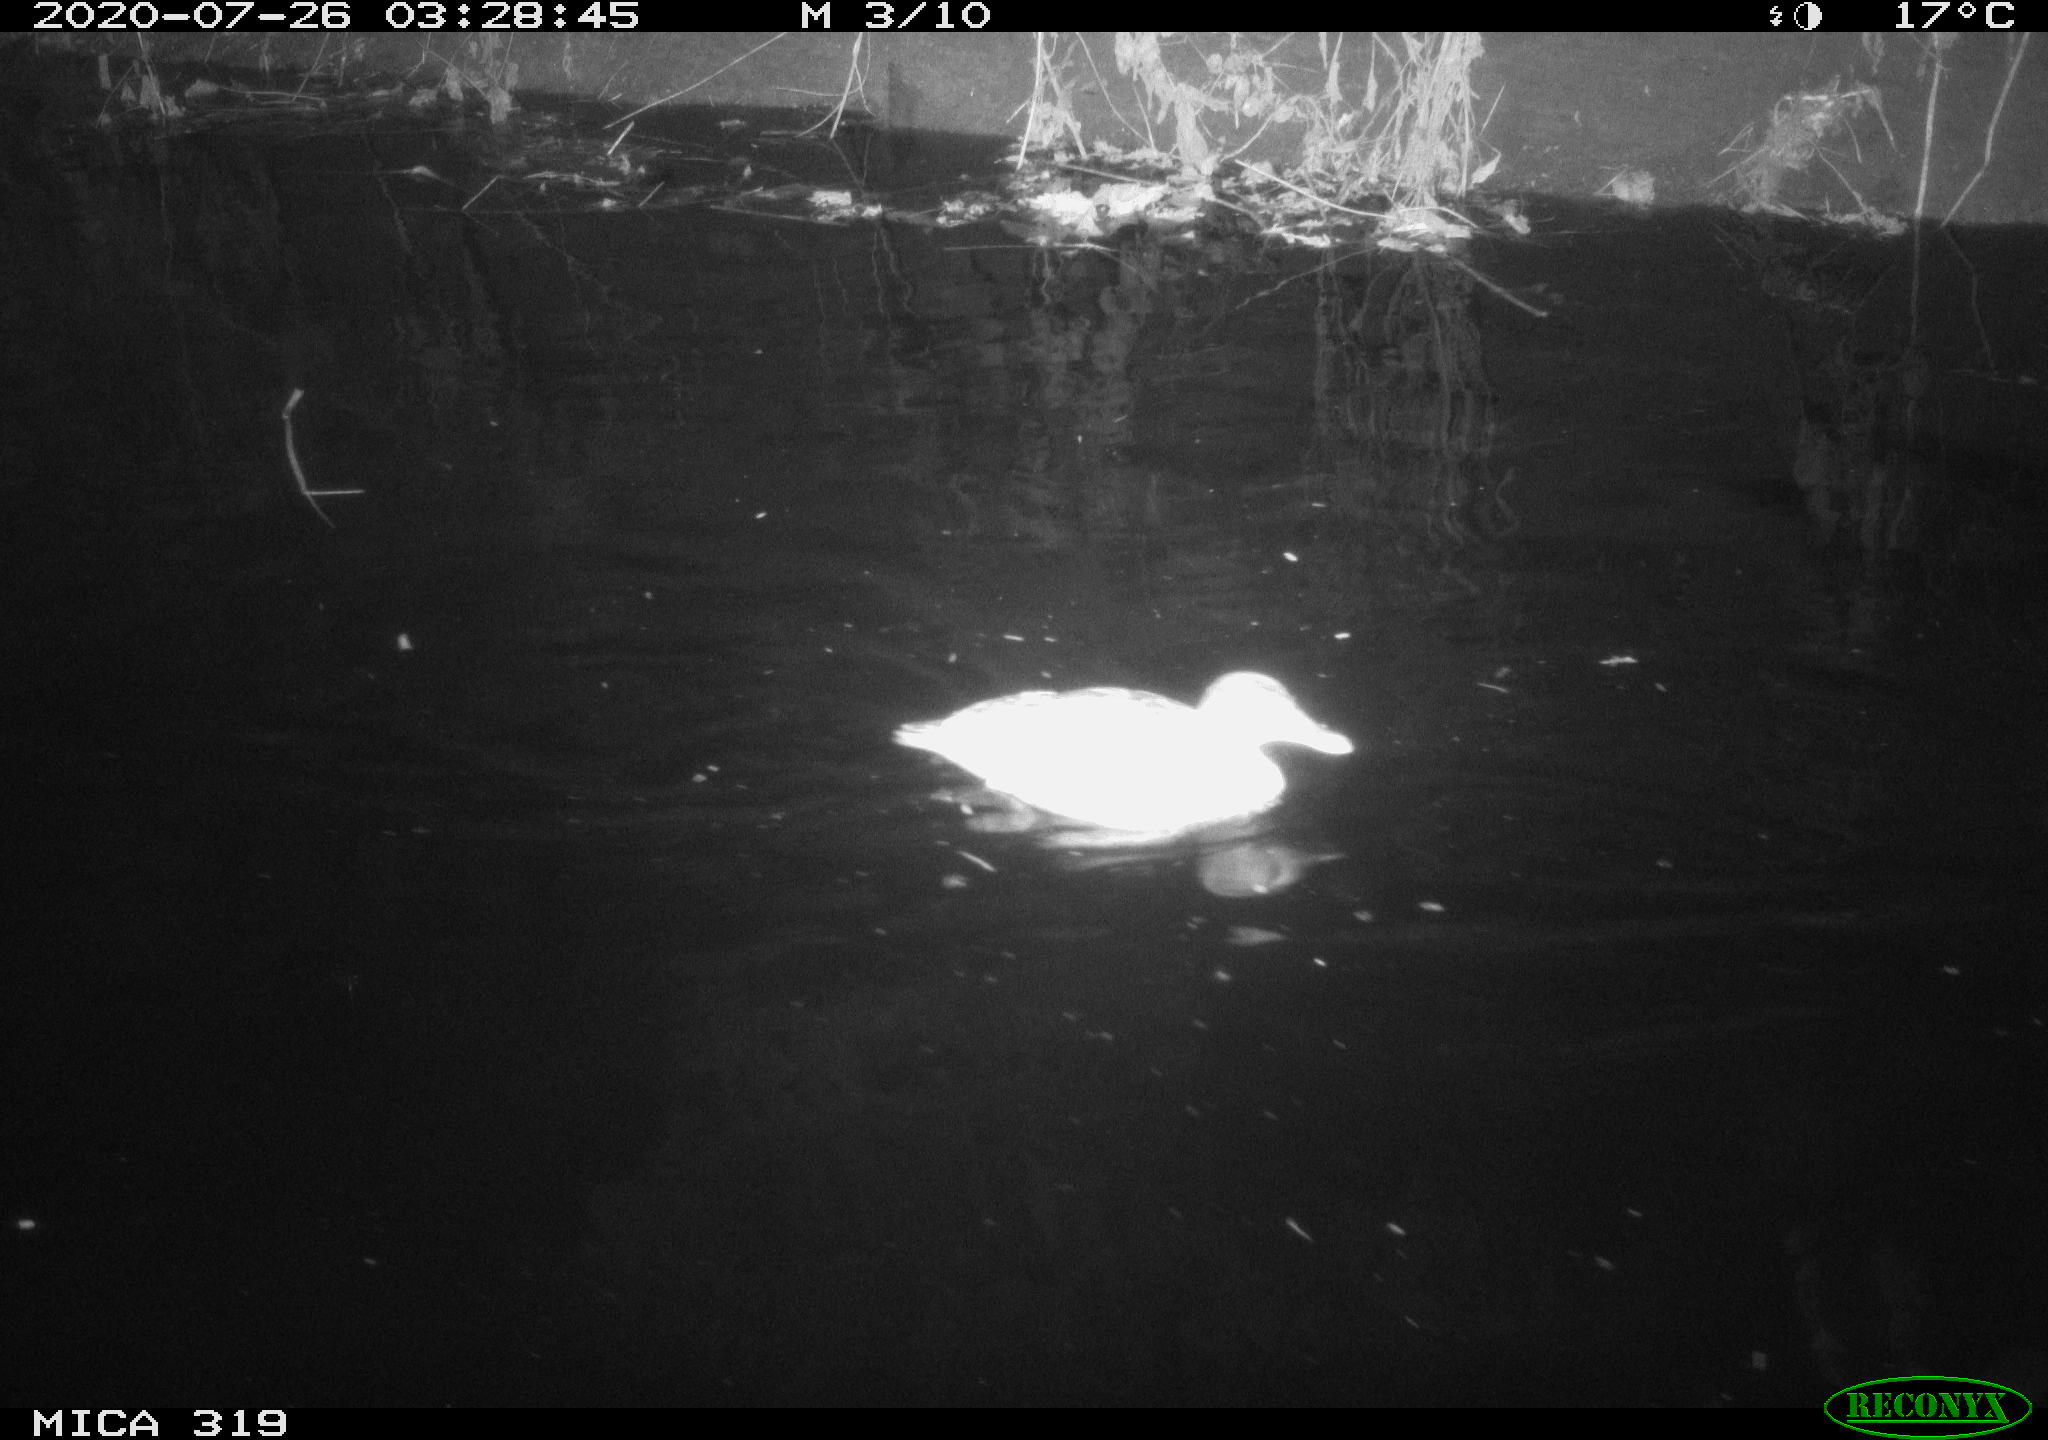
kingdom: Animalia
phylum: Chordata
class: Aves
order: Anseriformes
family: Anatidae
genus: Anas
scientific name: Anas platyrhynchos
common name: Mallard
